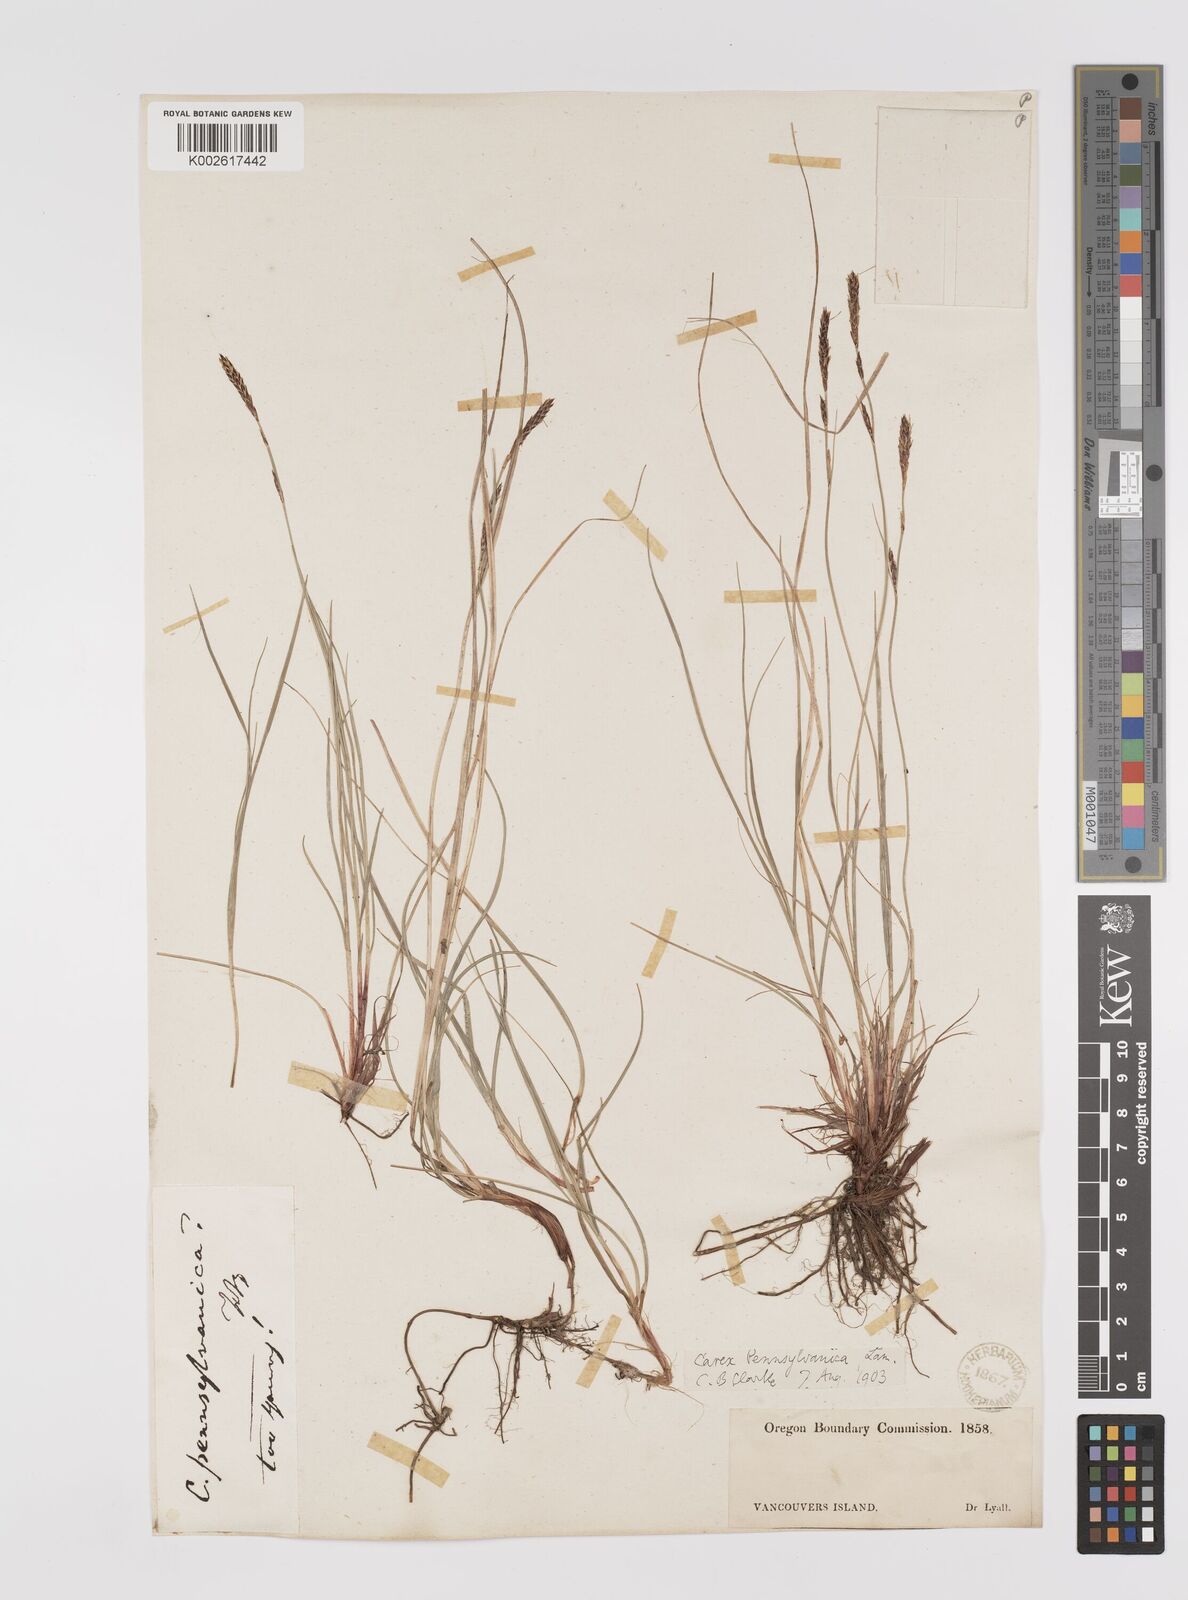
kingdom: Plantae
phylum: Tracheophyta
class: Liliopsida
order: Poales
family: Cyperaceae
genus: Carex
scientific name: Carex pensylvanica
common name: Common oak sedge
